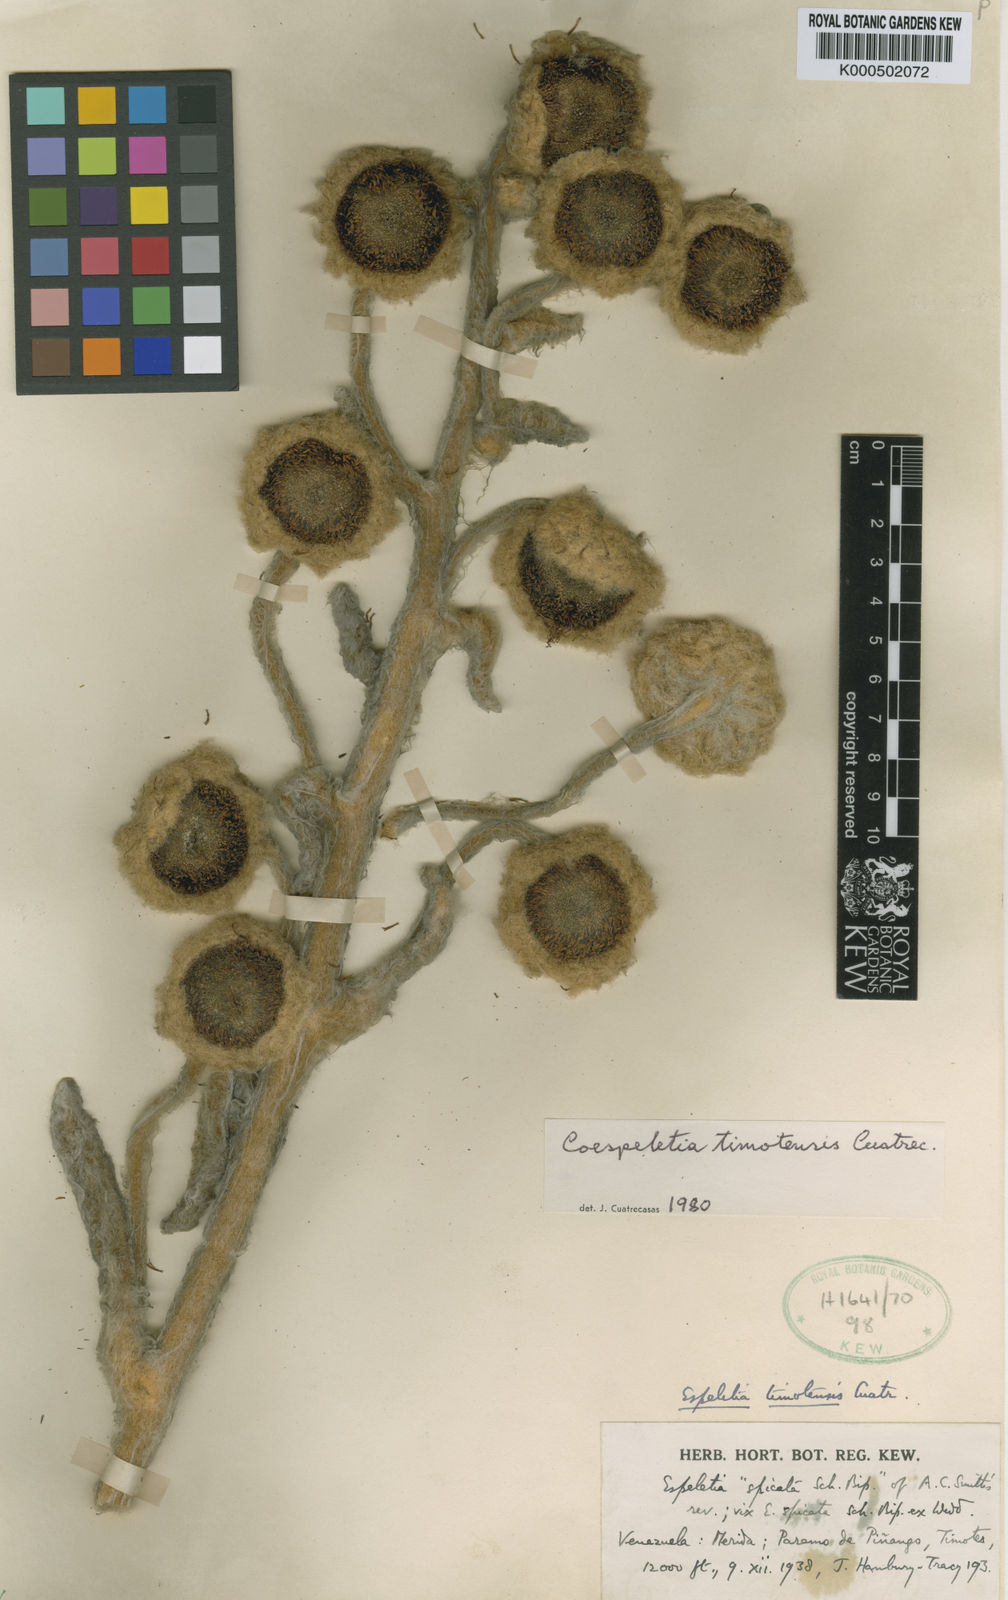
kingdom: Plantae
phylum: Tracheophyta
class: Magnoliopsida
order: Asterales
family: Asteraceae
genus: Espeletia
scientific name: Espeletia timotensis
